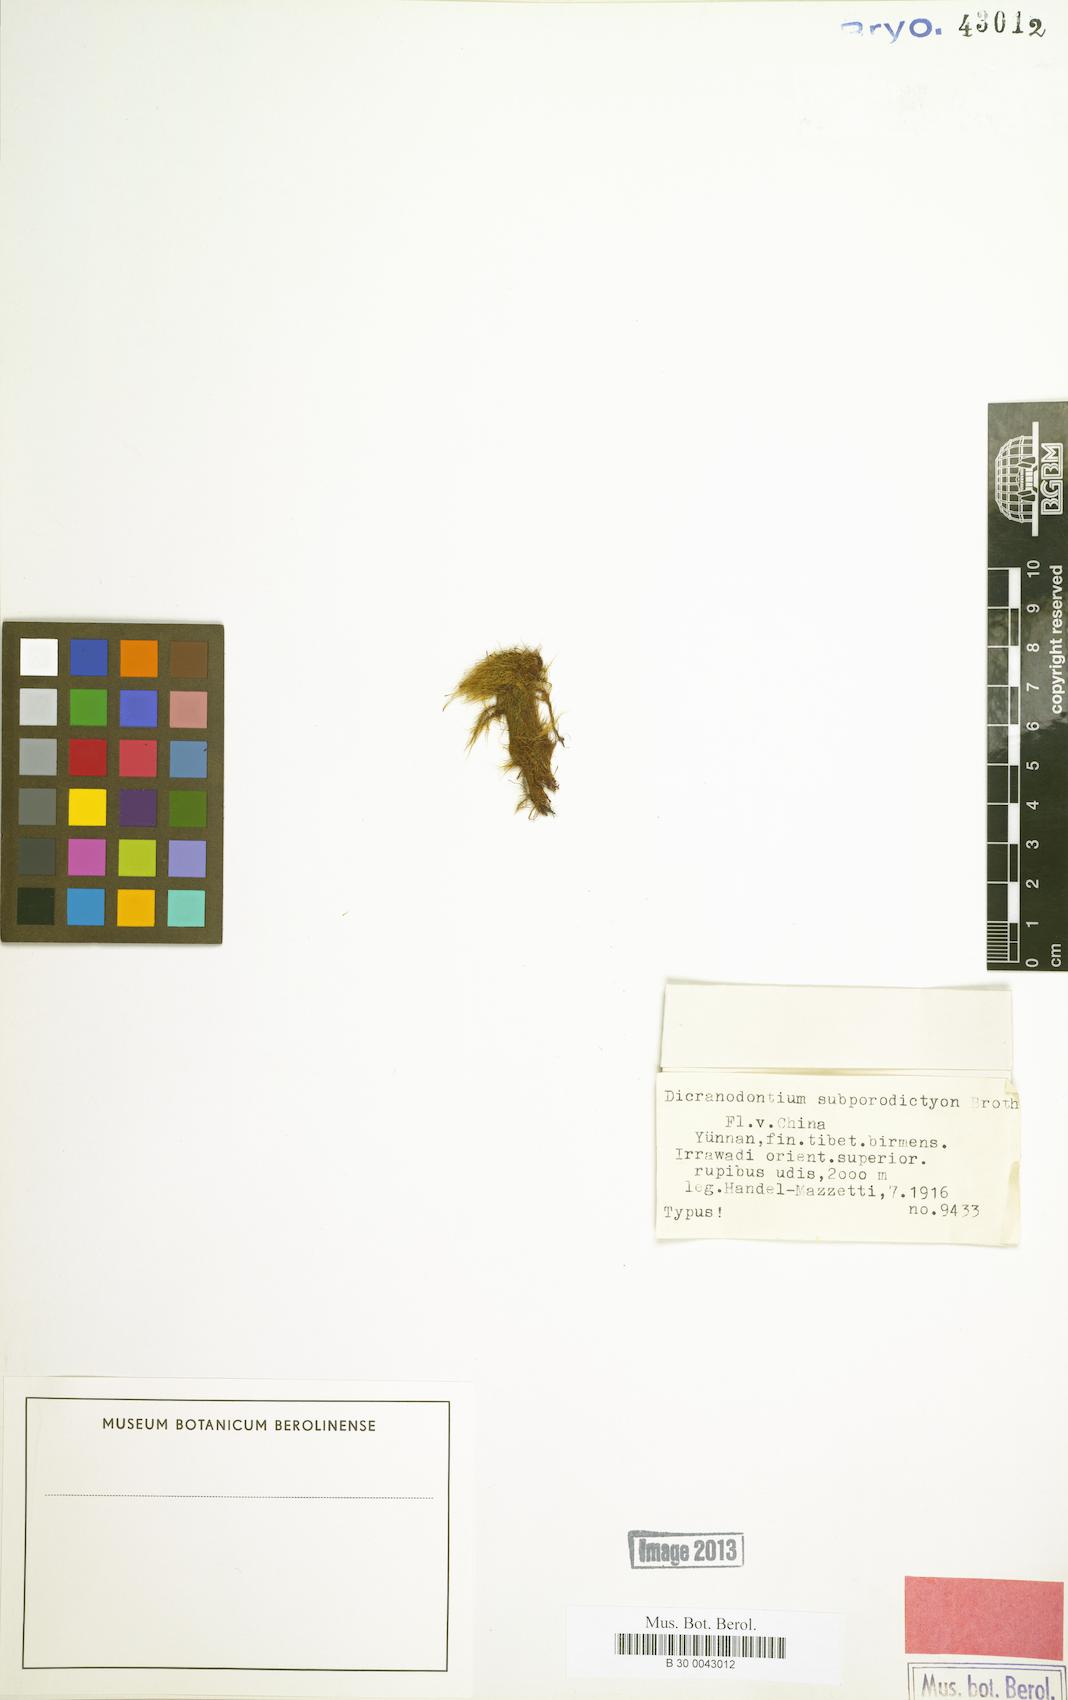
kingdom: Plantae
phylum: Bryophyta
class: Bryopsida
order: Dicranales
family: Leucobryaceae
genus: Atractylocarpus
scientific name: Atractylocarpus subporodictyon
